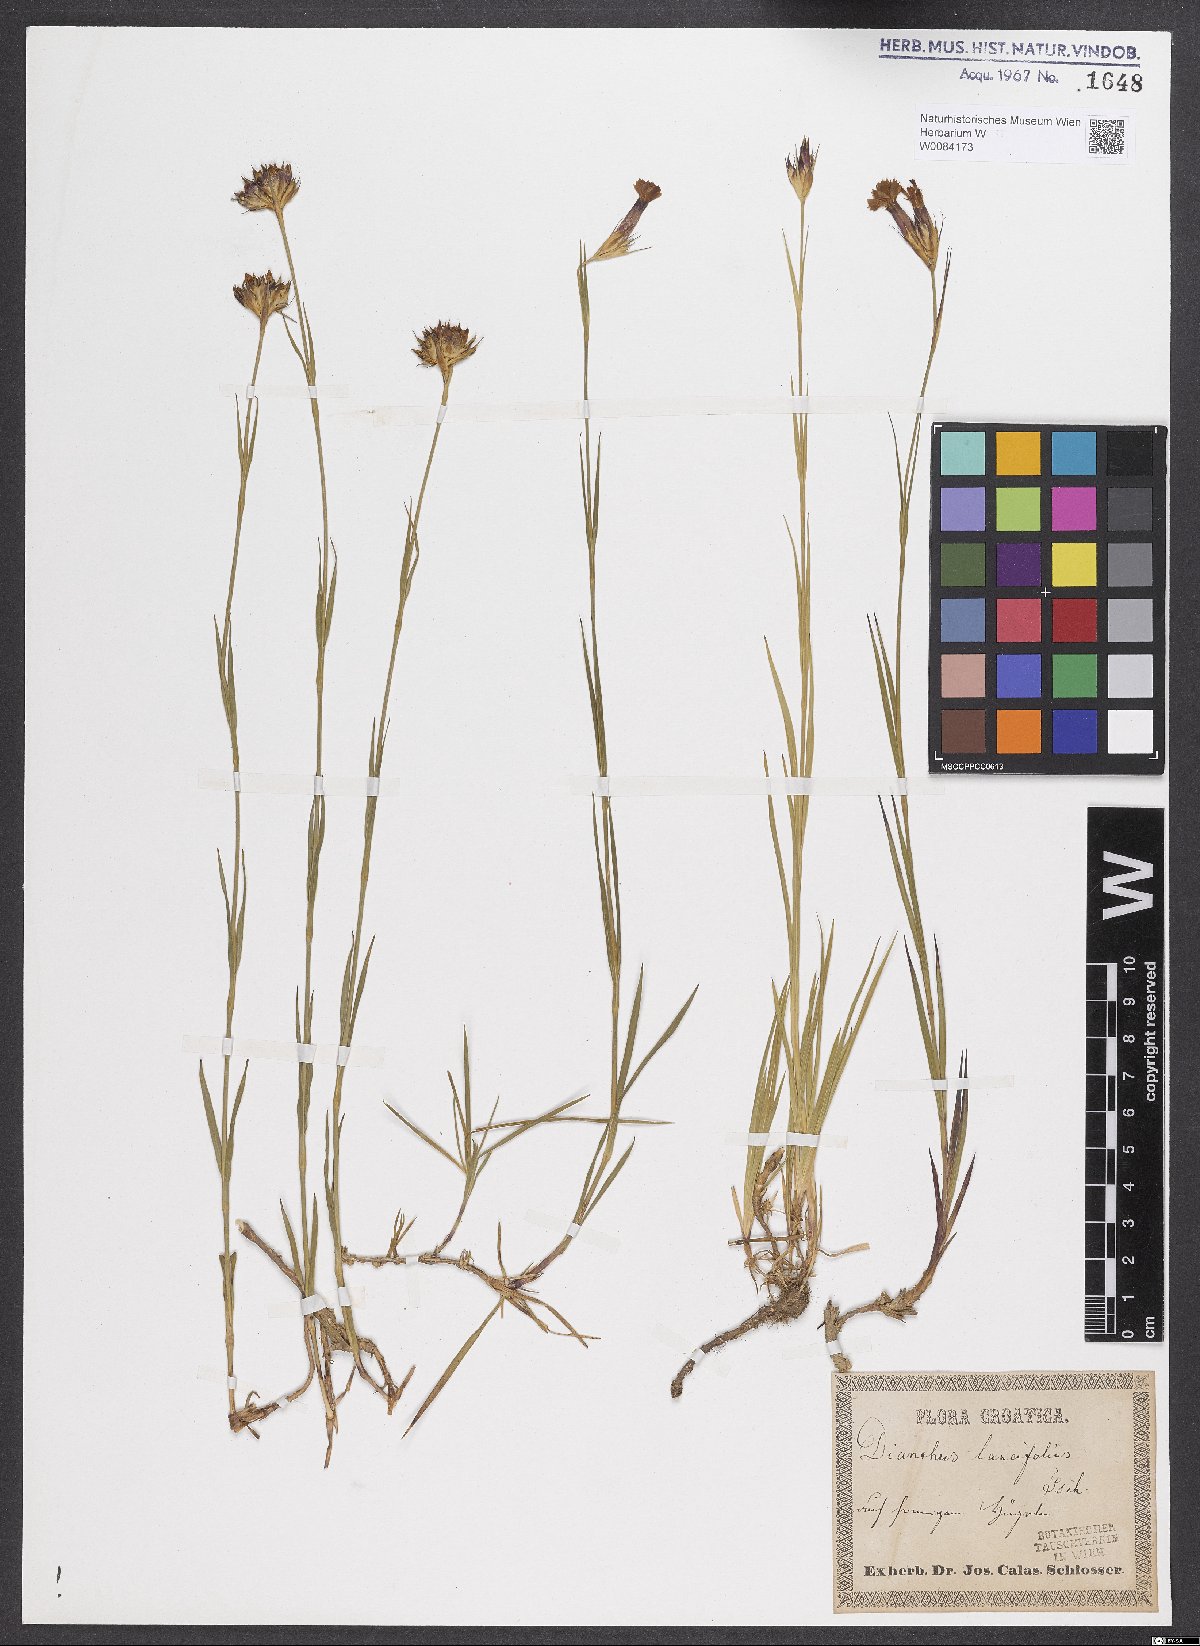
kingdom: Plantae
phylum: Tracheophyta
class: Magnoliopsida
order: Caryophyllales
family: Caryophyllaceae
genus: Dianthus
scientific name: Dianthus trifasciculatus
